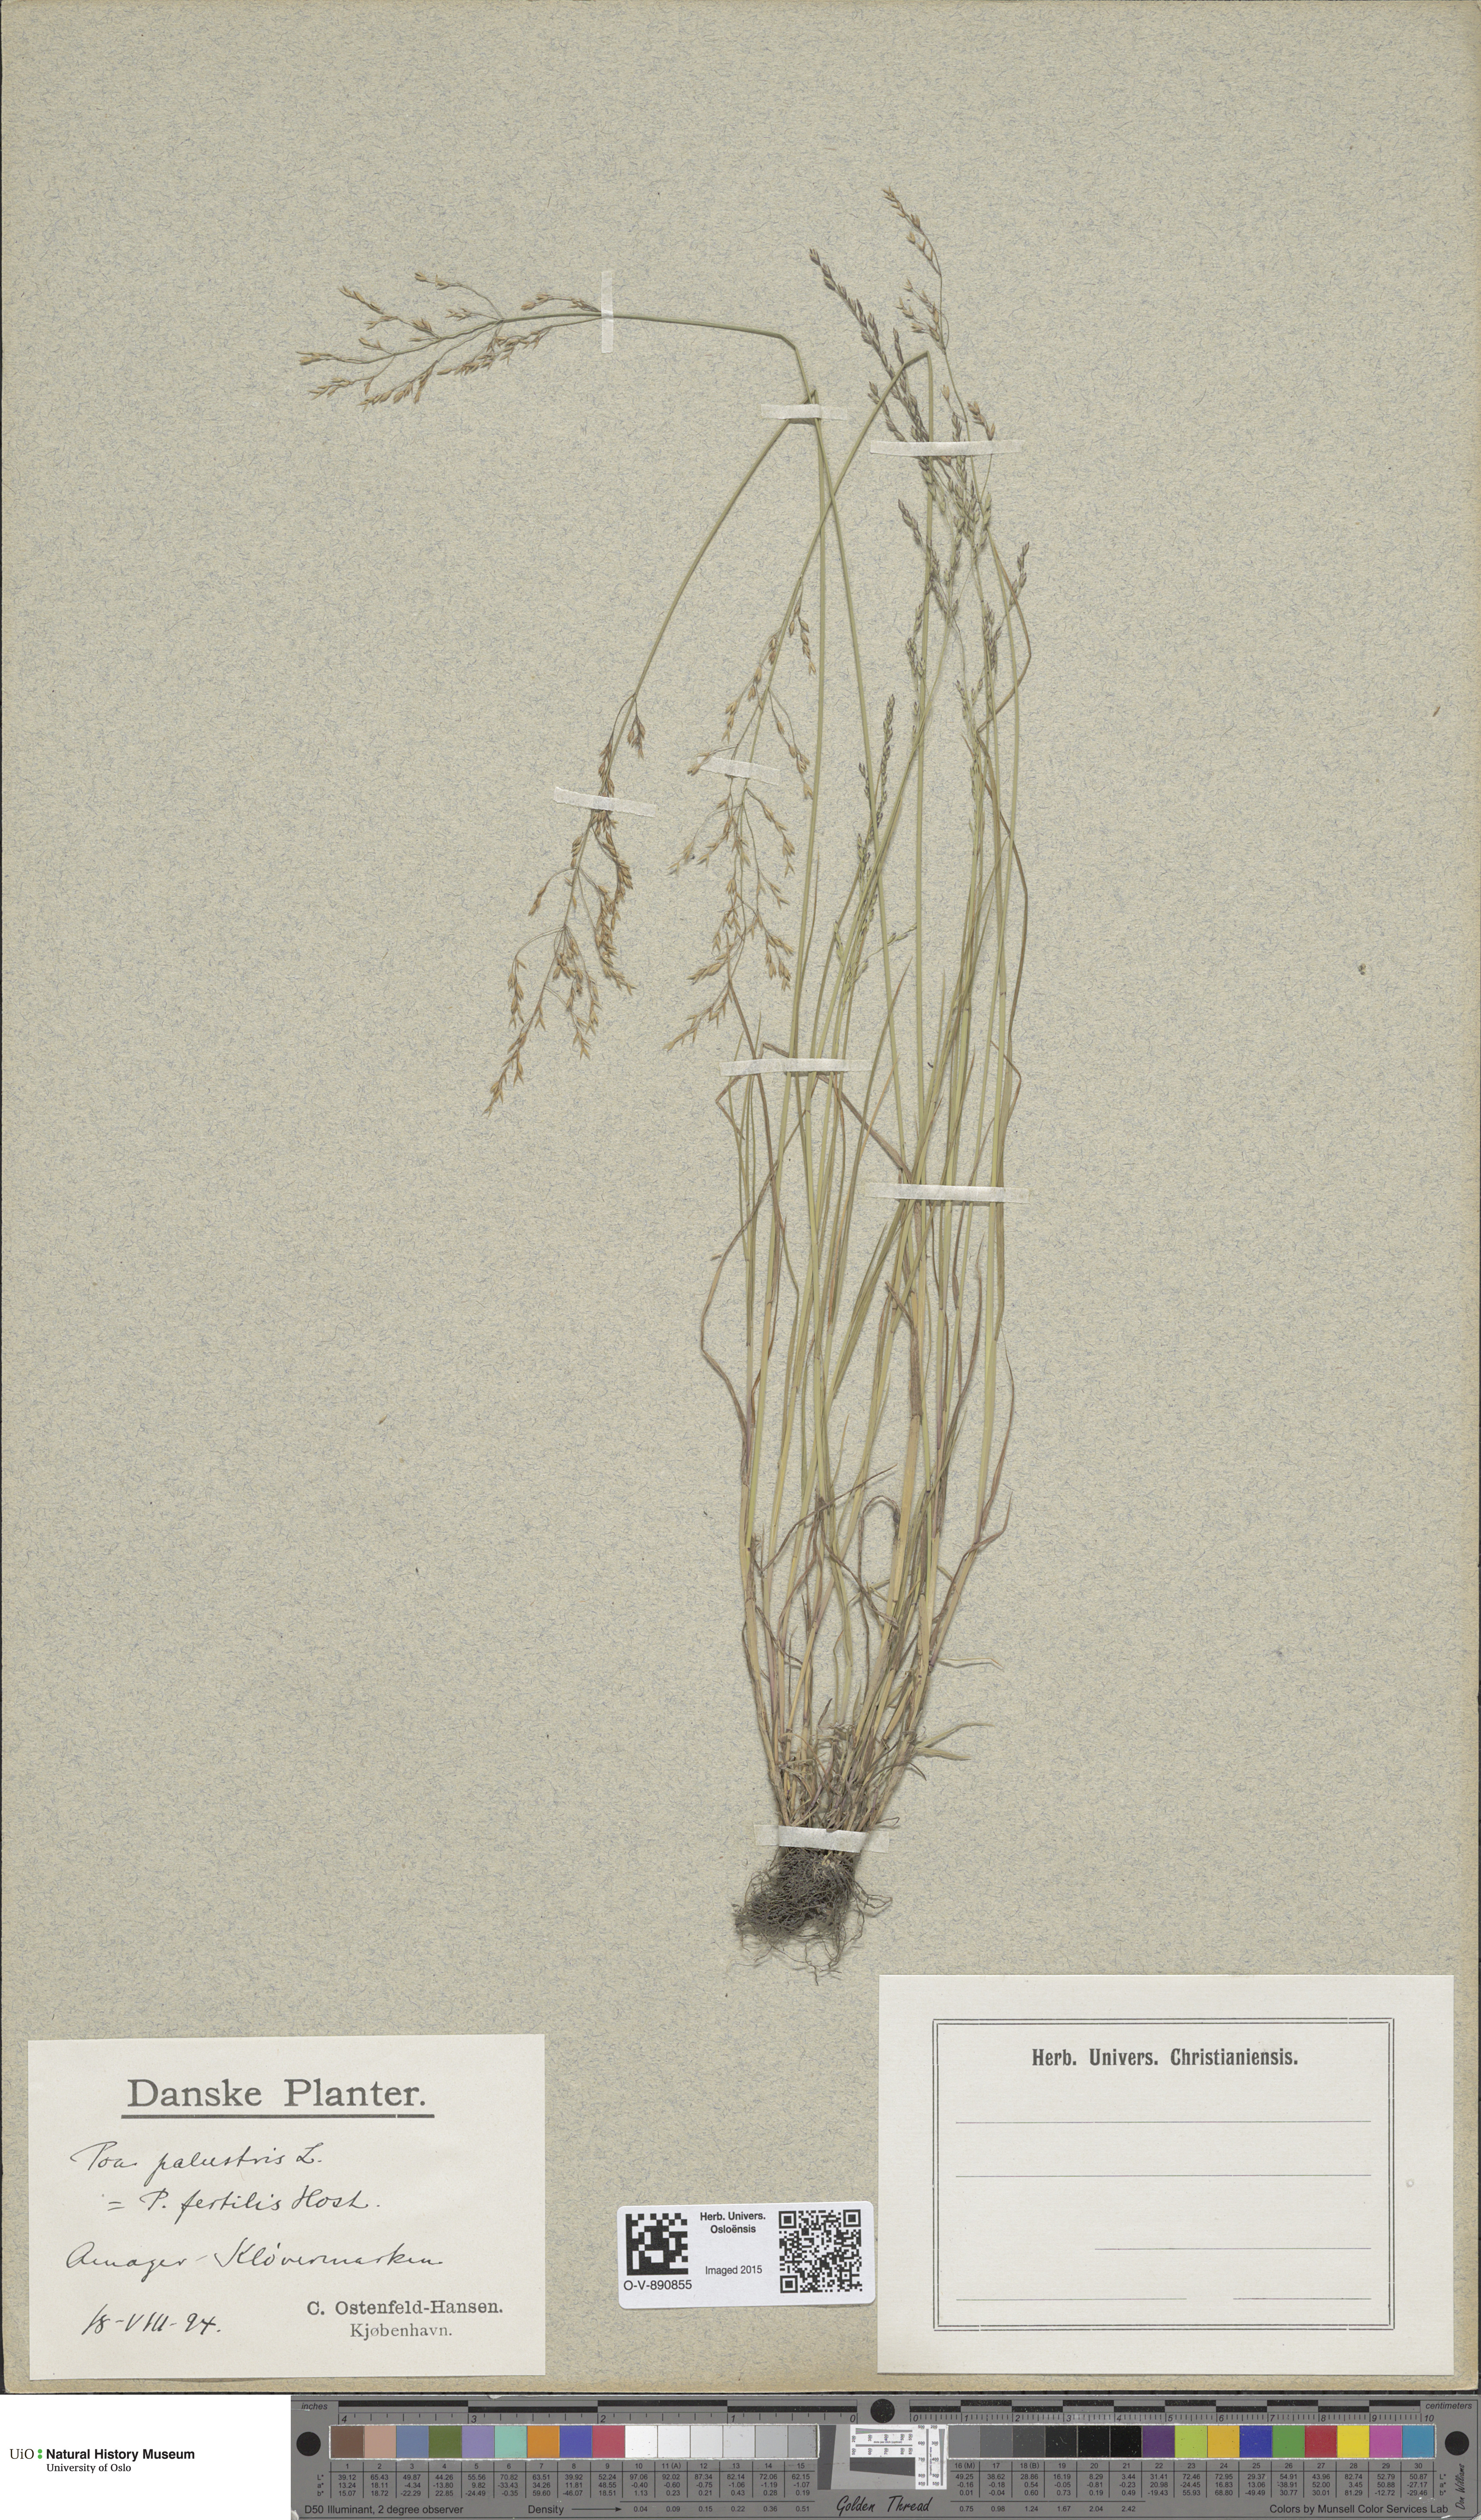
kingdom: Plantae
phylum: Tracheophyta
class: Liliopsida
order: Poales
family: Poaceae
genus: Poa
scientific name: Poa palustris
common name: Swamp meadow-grass
